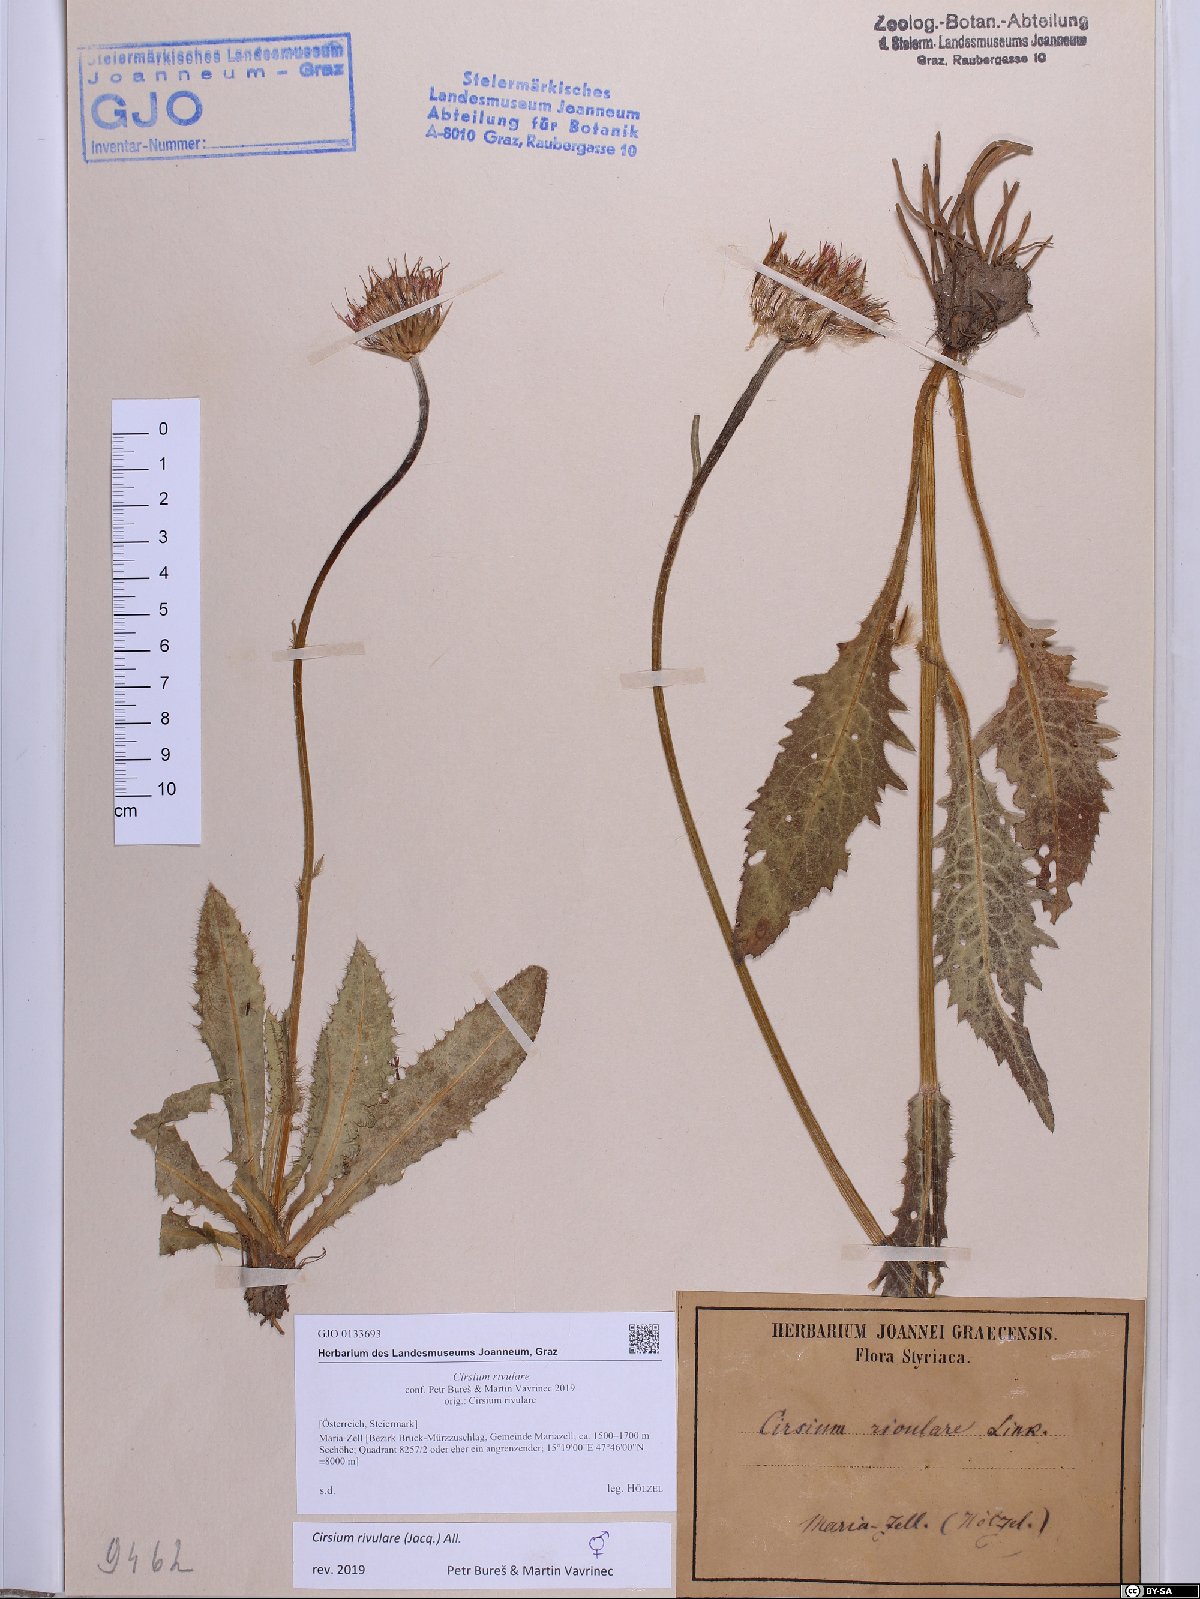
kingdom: Plantae
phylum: Tracheophyta
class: Magnoliopsida
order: Asterales
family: Asteraceae
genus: Cirsium
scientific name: Cirsium rivulare
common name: Brook thistle
